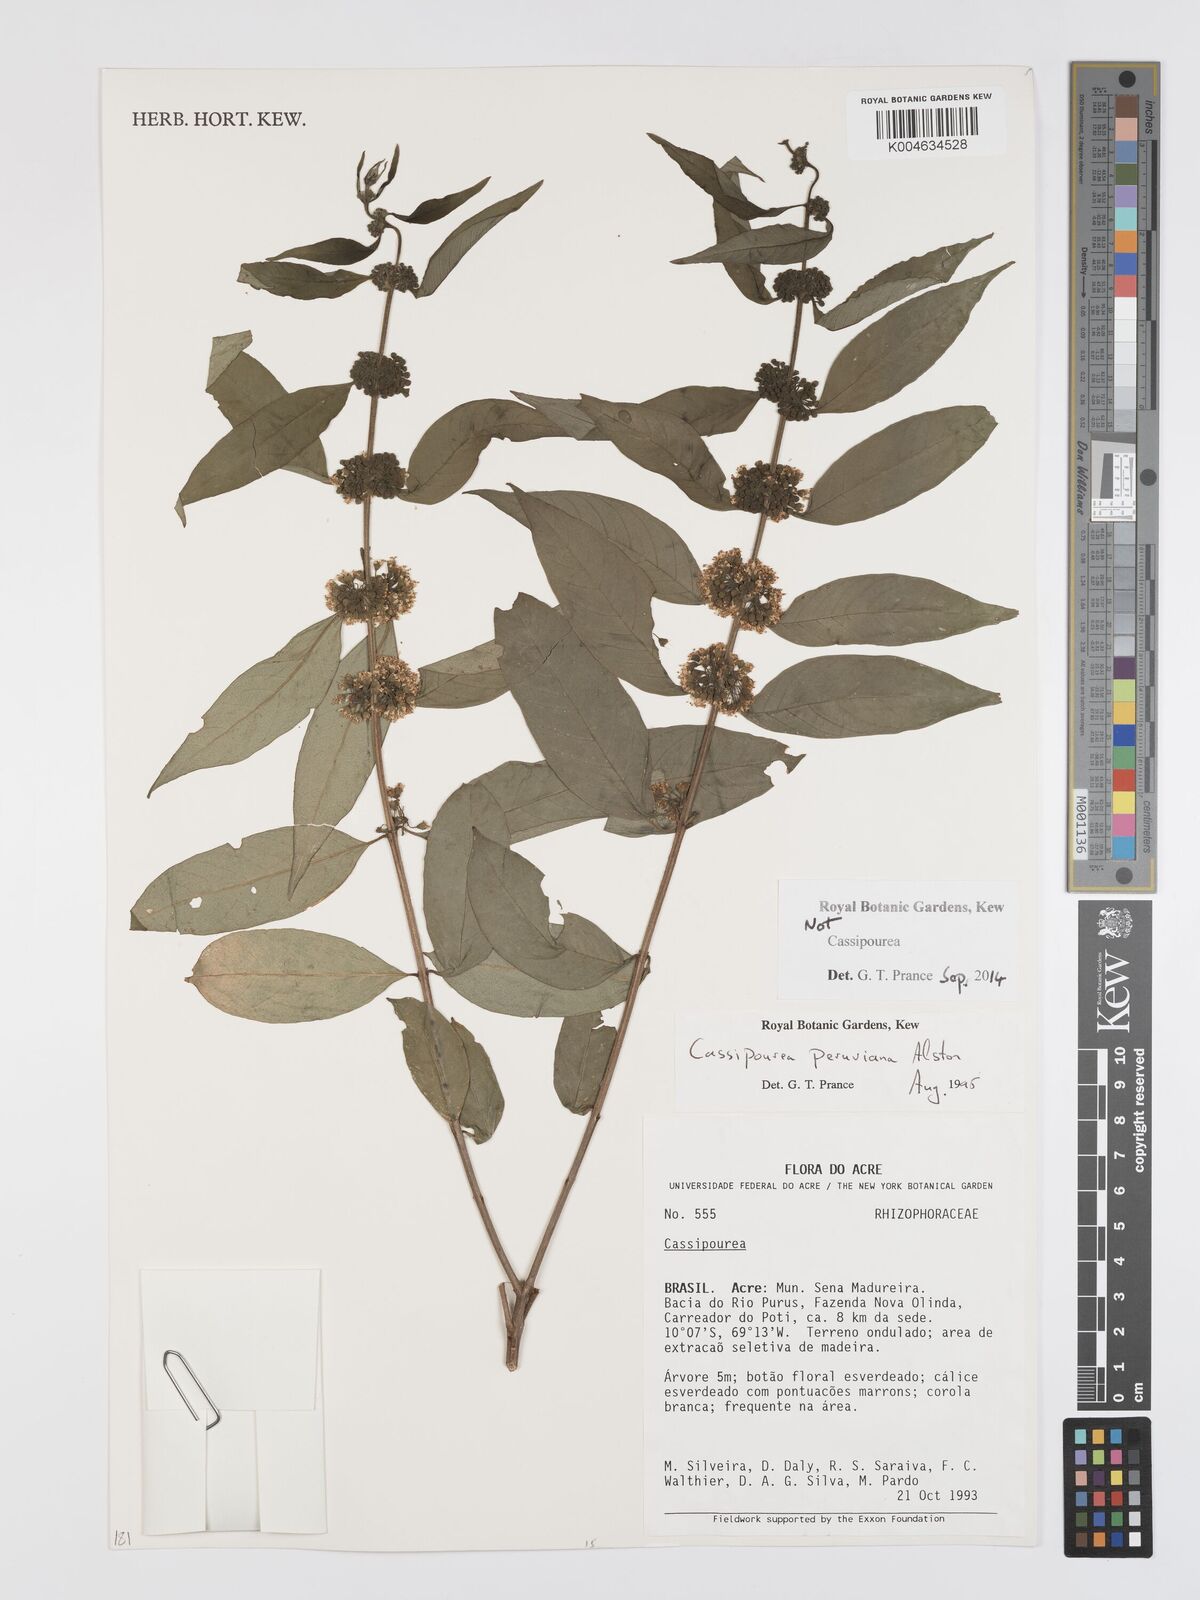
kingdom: Plantae
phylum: Tracheophyta
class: Magnoliopsida
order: Malpighiales
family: Rhizophoraceae
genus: Cassipourea
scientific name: Cassipourea peruviana
